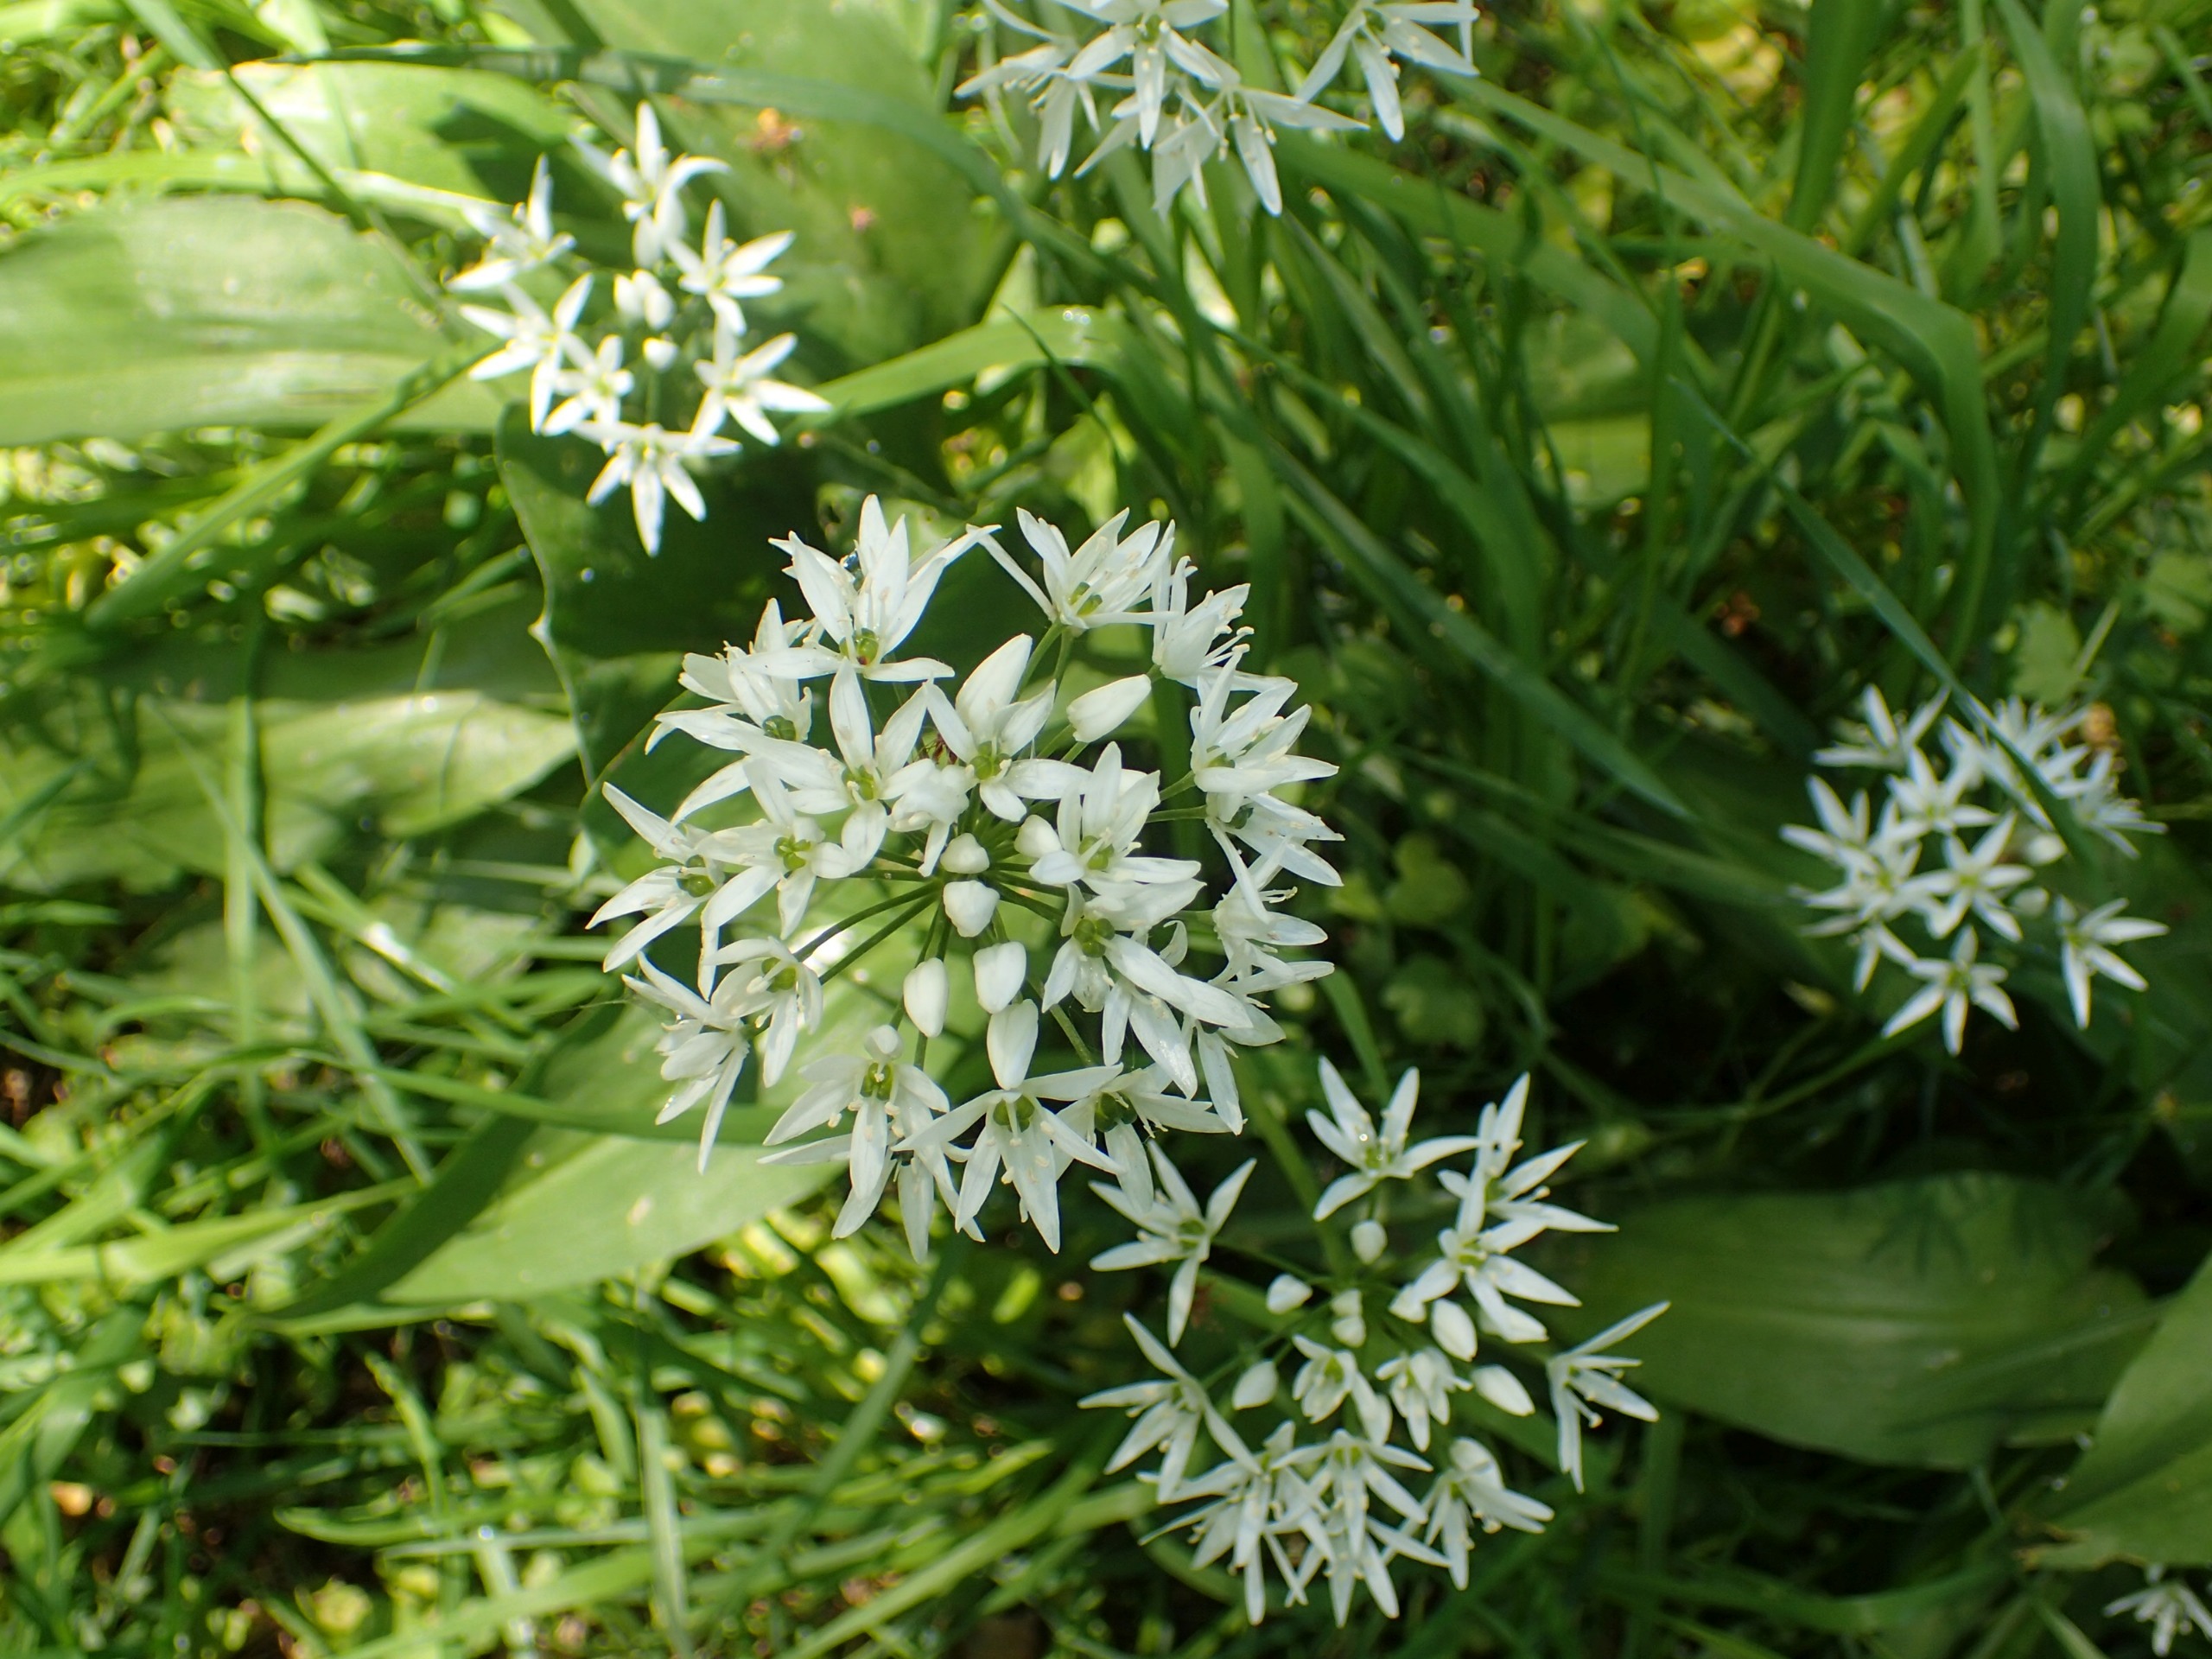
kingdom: Plantae
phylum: Tracheophyta
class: Liliopsida
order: Asparagales
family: Amaryllidaceae
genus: Allium
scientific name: Allium ursinum
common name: Rams-løg
